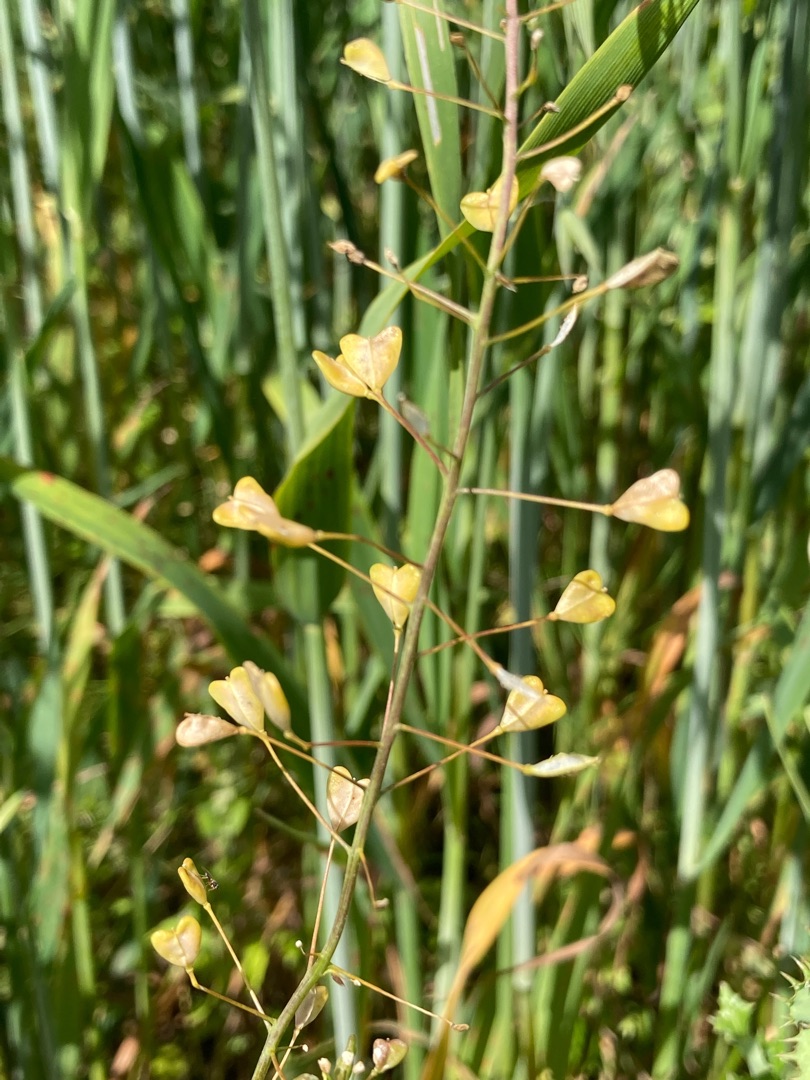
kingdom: Plantae
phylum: Tracheophyta
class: Magnoliopsida
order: Brassicales
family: Brassicaceae
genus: Capsella
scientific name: Capsella bursa-pastoris
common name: Hyrdetaske
